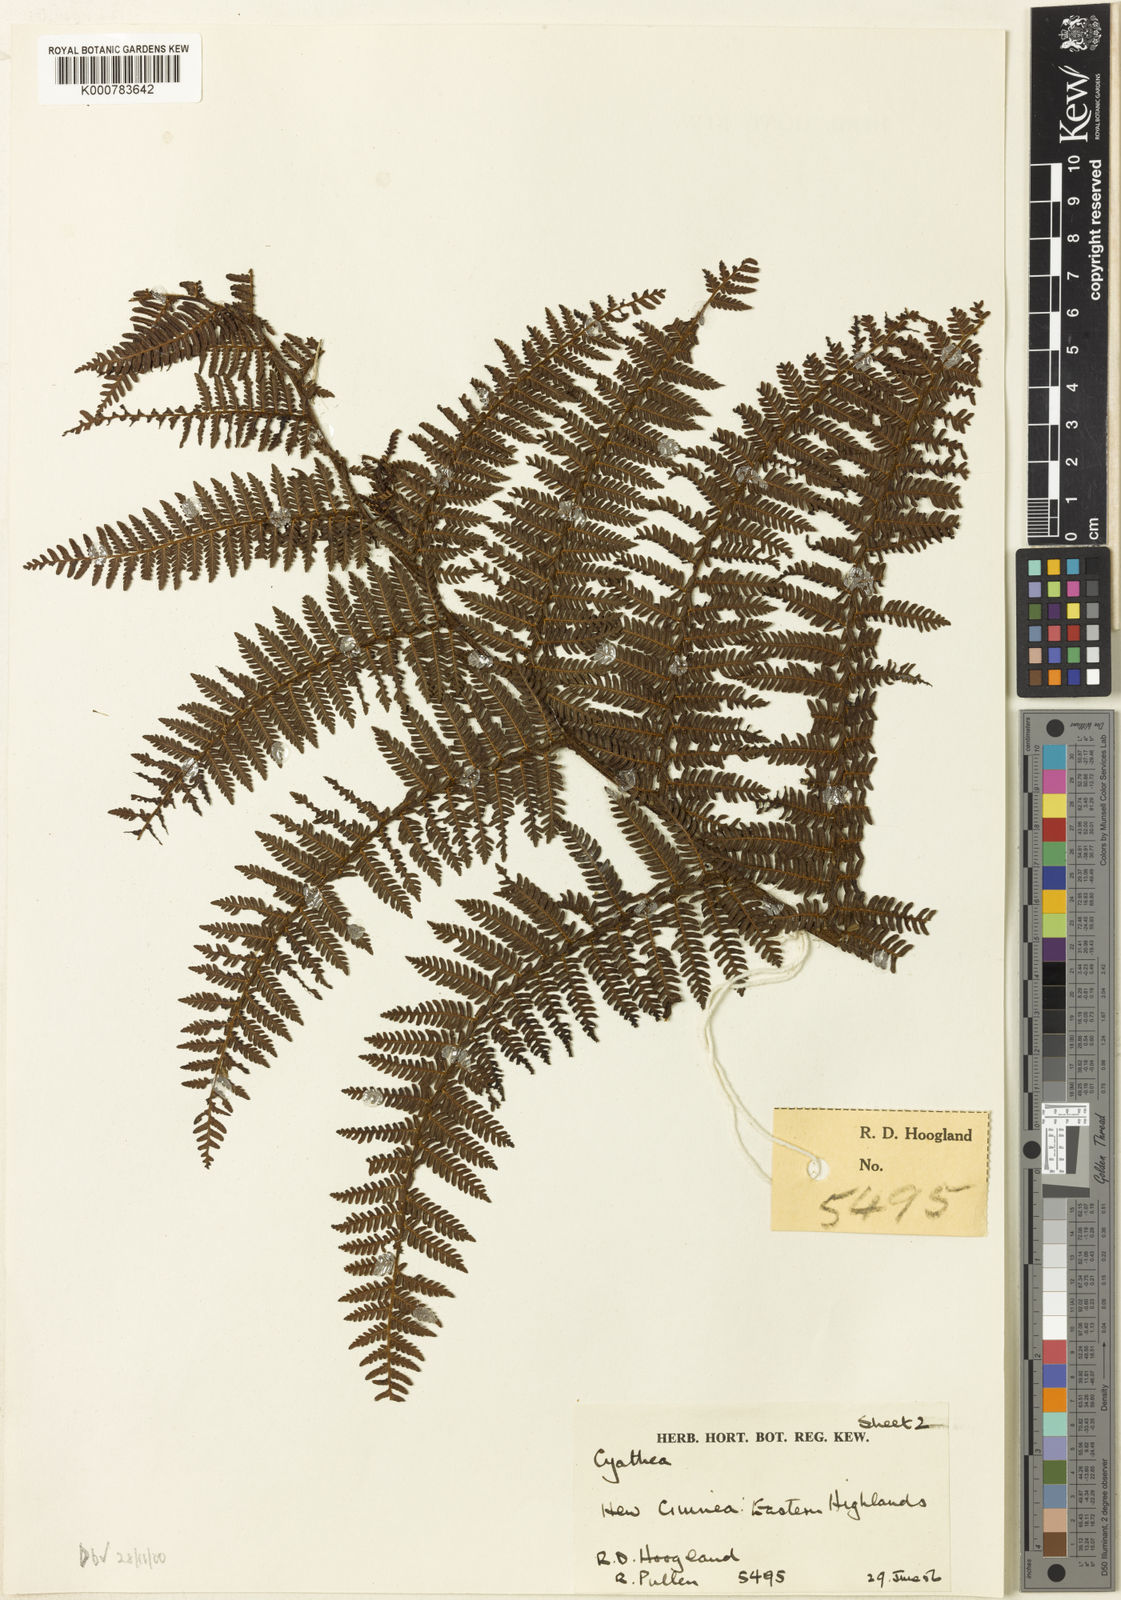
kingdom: Plantae
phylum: Tracheophyta
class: Polypodiopsida
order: Cyatheales
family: Cyatheaceae
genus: Alsophila
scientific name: Alsophila nigrolineata
